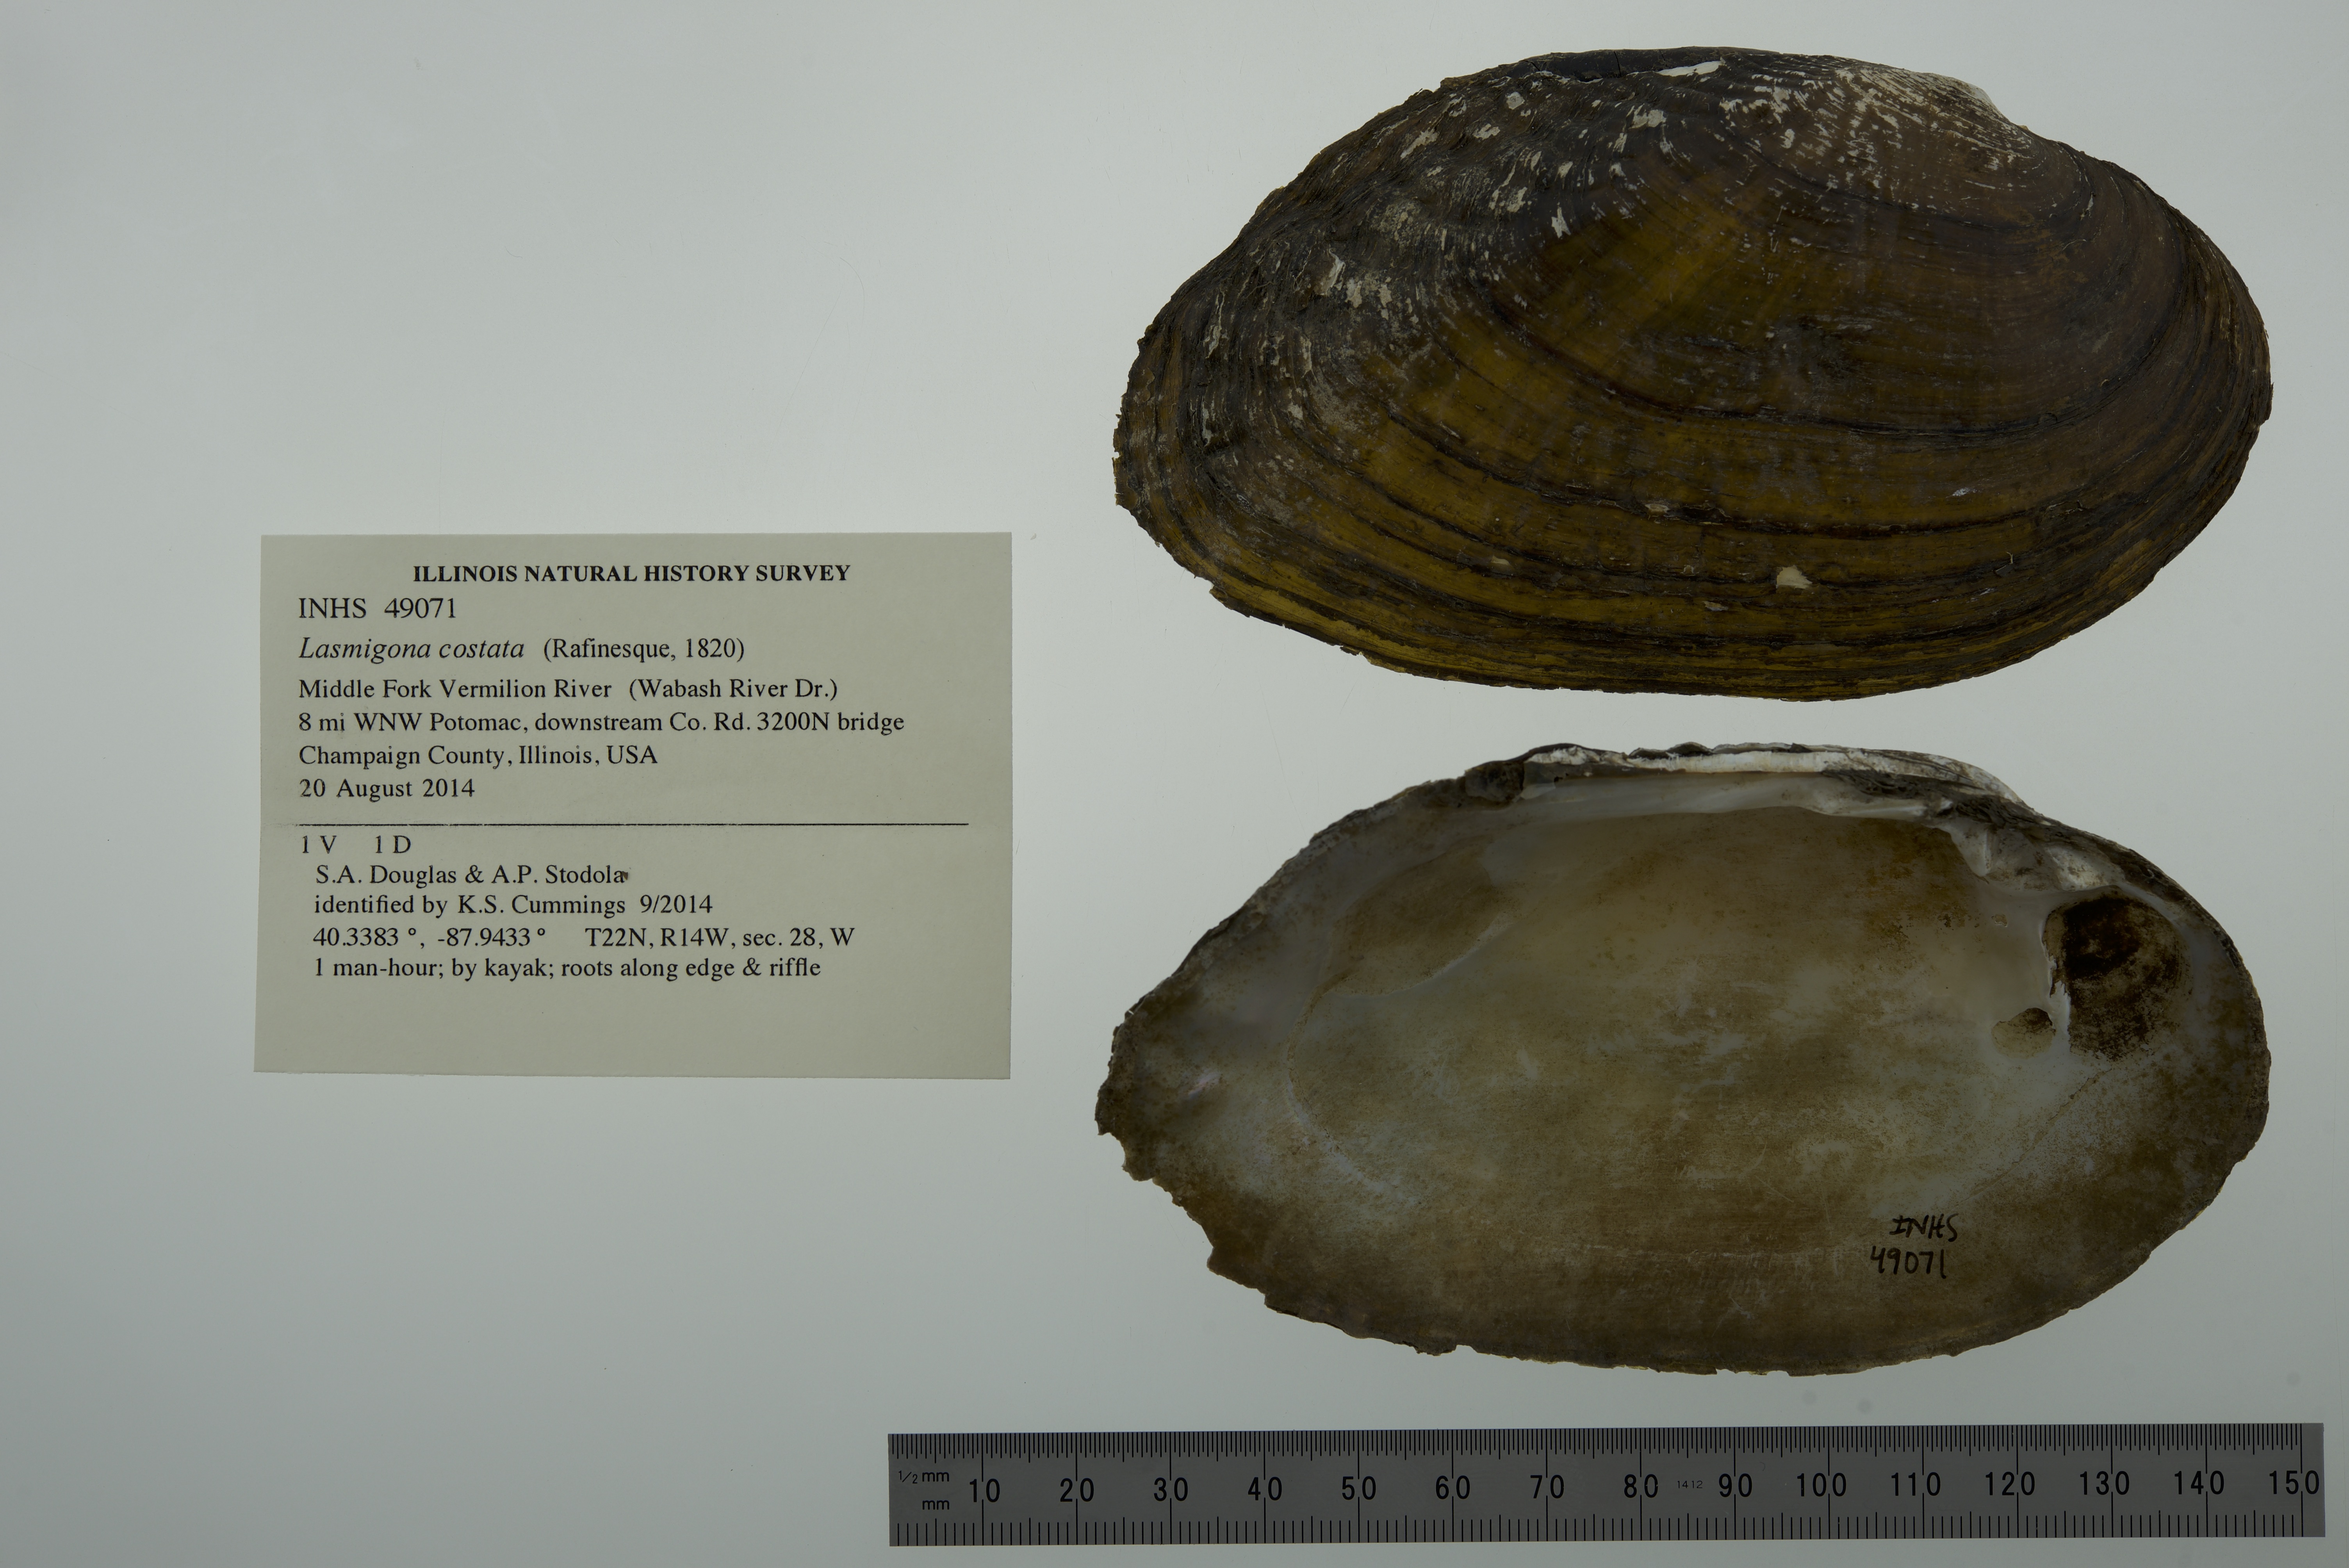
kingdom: Animalia
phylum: Mollusca
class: Bivalvia
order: Unionida
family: Unionidae
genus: Lasmigona
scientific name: Lasmigona costata
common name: Flutedshell
